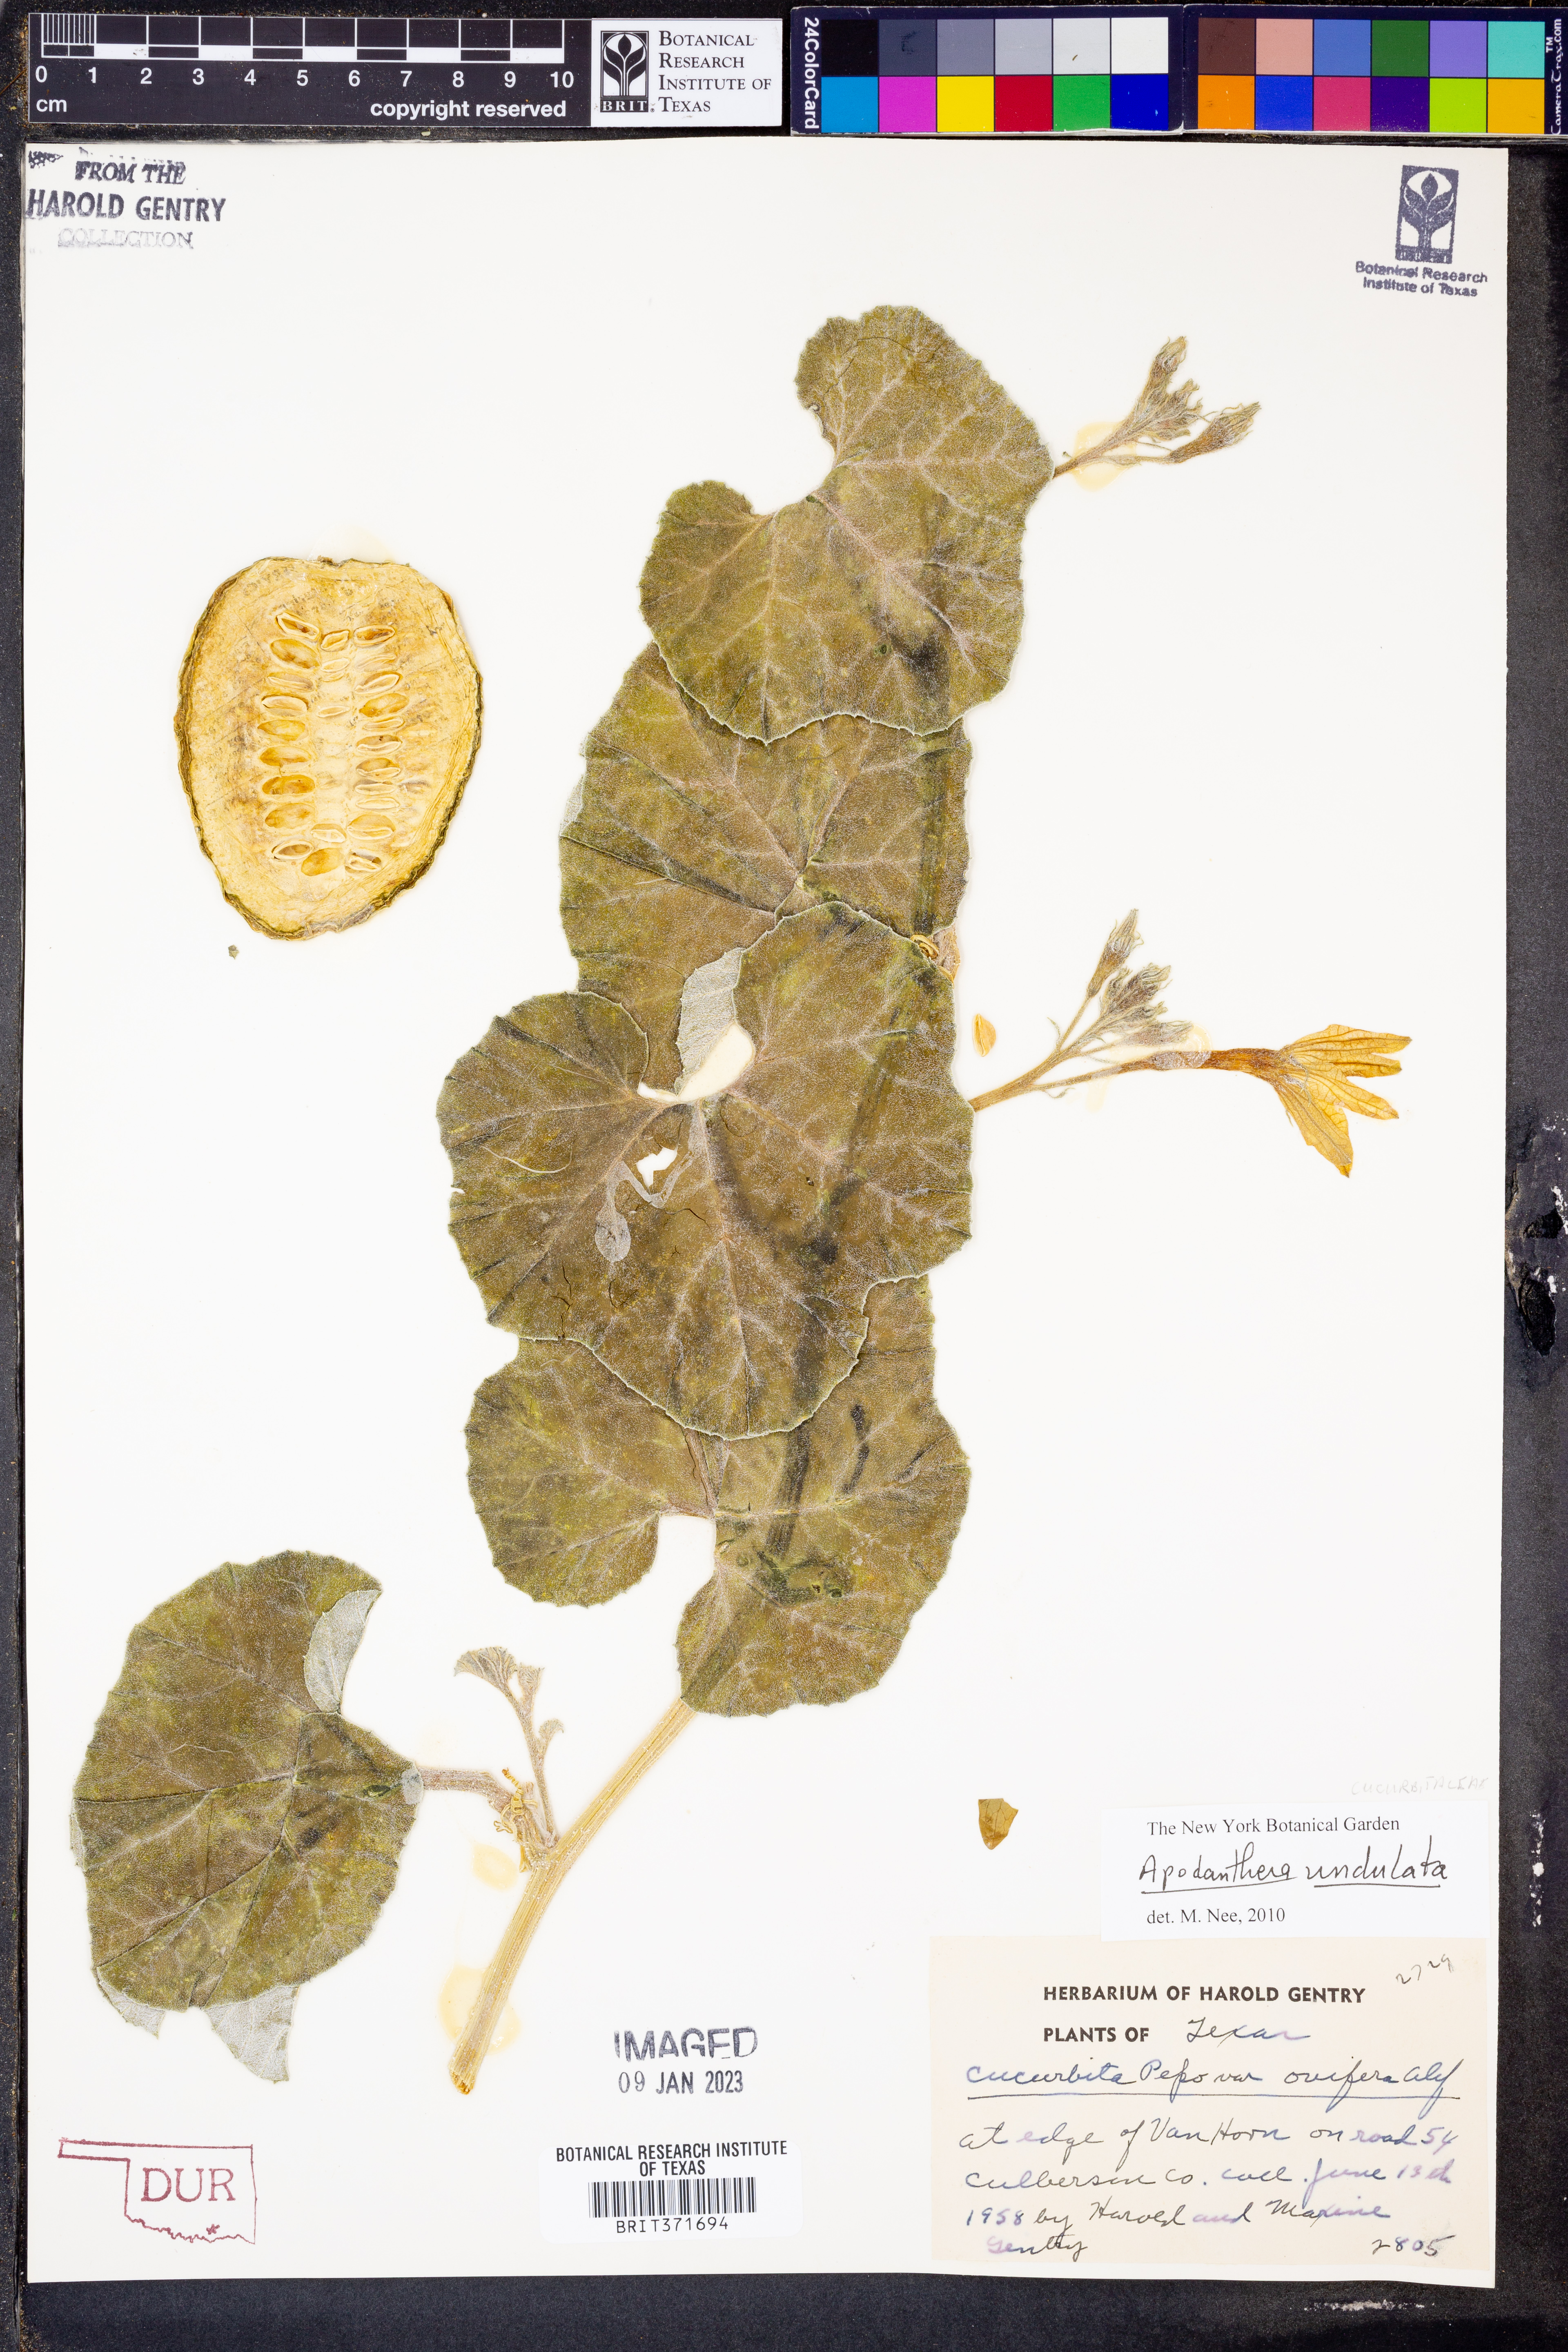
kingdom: Plantae
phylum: Tracheophyta
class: Magnoliopsida
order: Cucurbitales
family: Cucurbitaceae
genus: Apodanthera
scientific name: Apodanthera undulata
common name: Melon-loco
